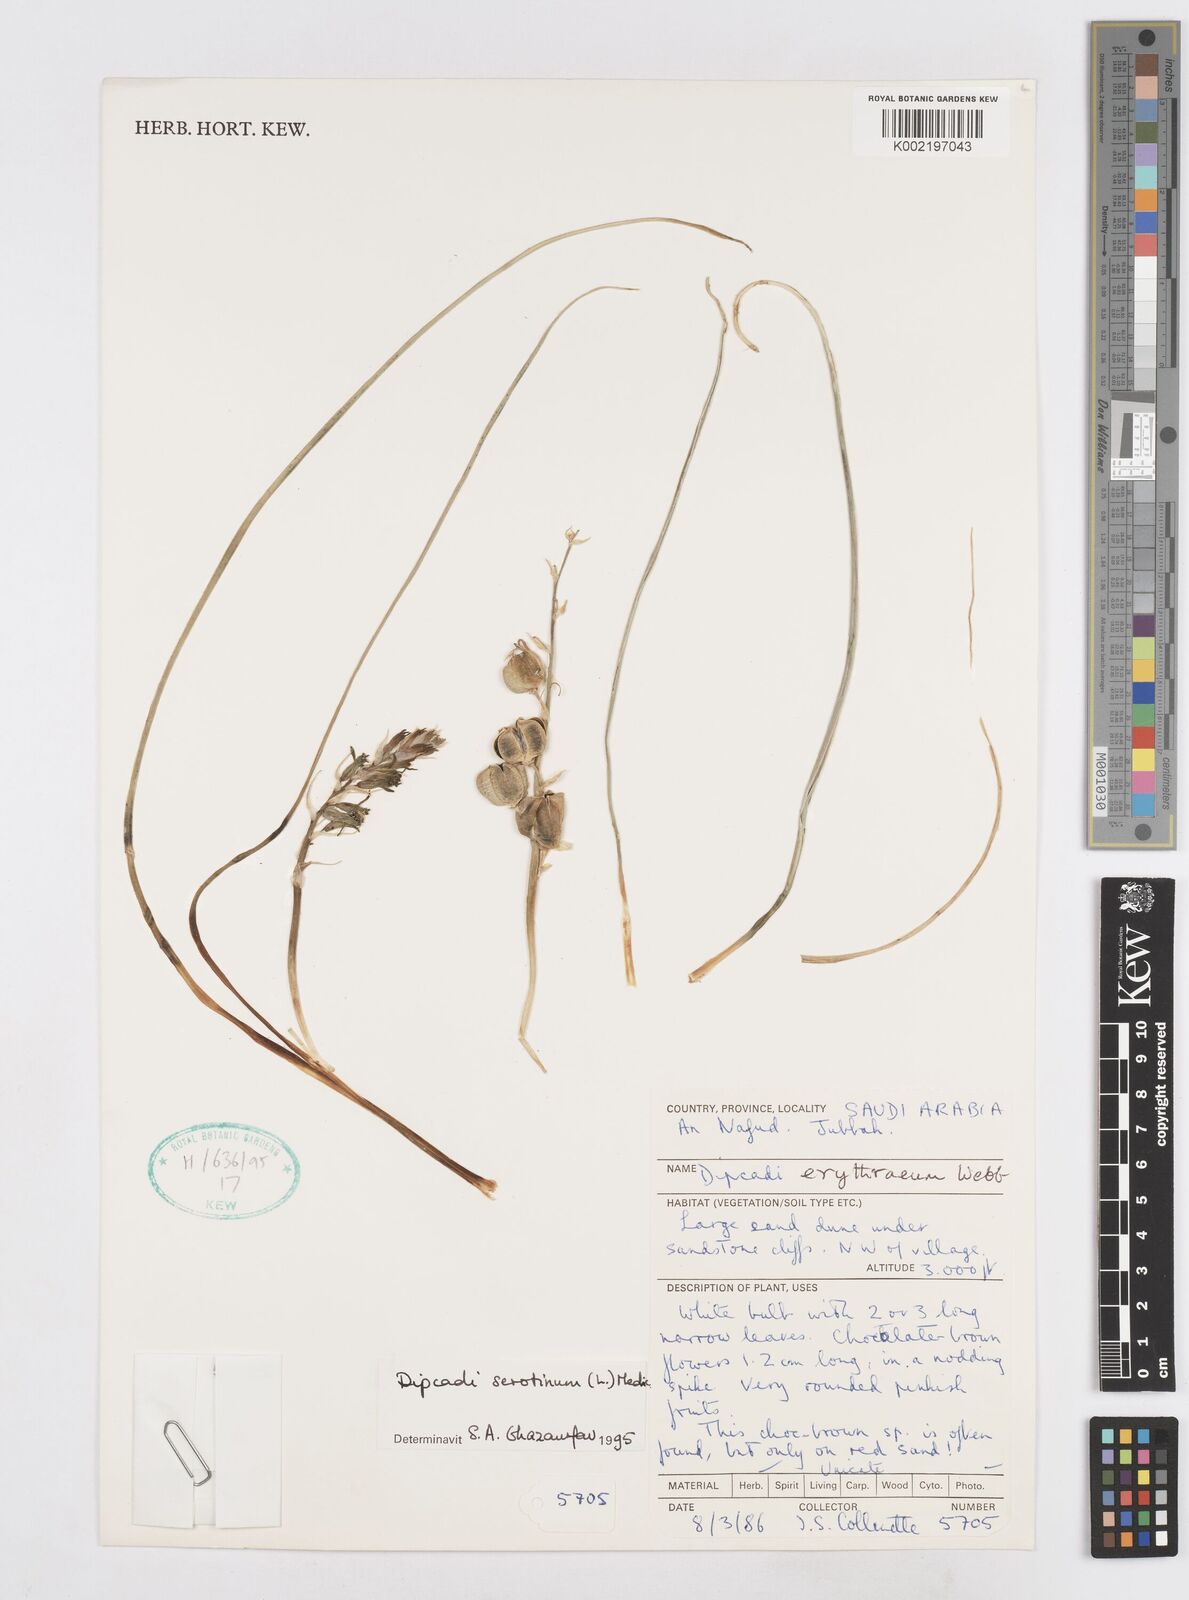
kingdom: Plantae
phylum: Tracheophyta
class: Liliopsida
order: Asparagales
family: Asparagaceae
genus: Dipcadi
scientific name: Dipcadi serotinum
